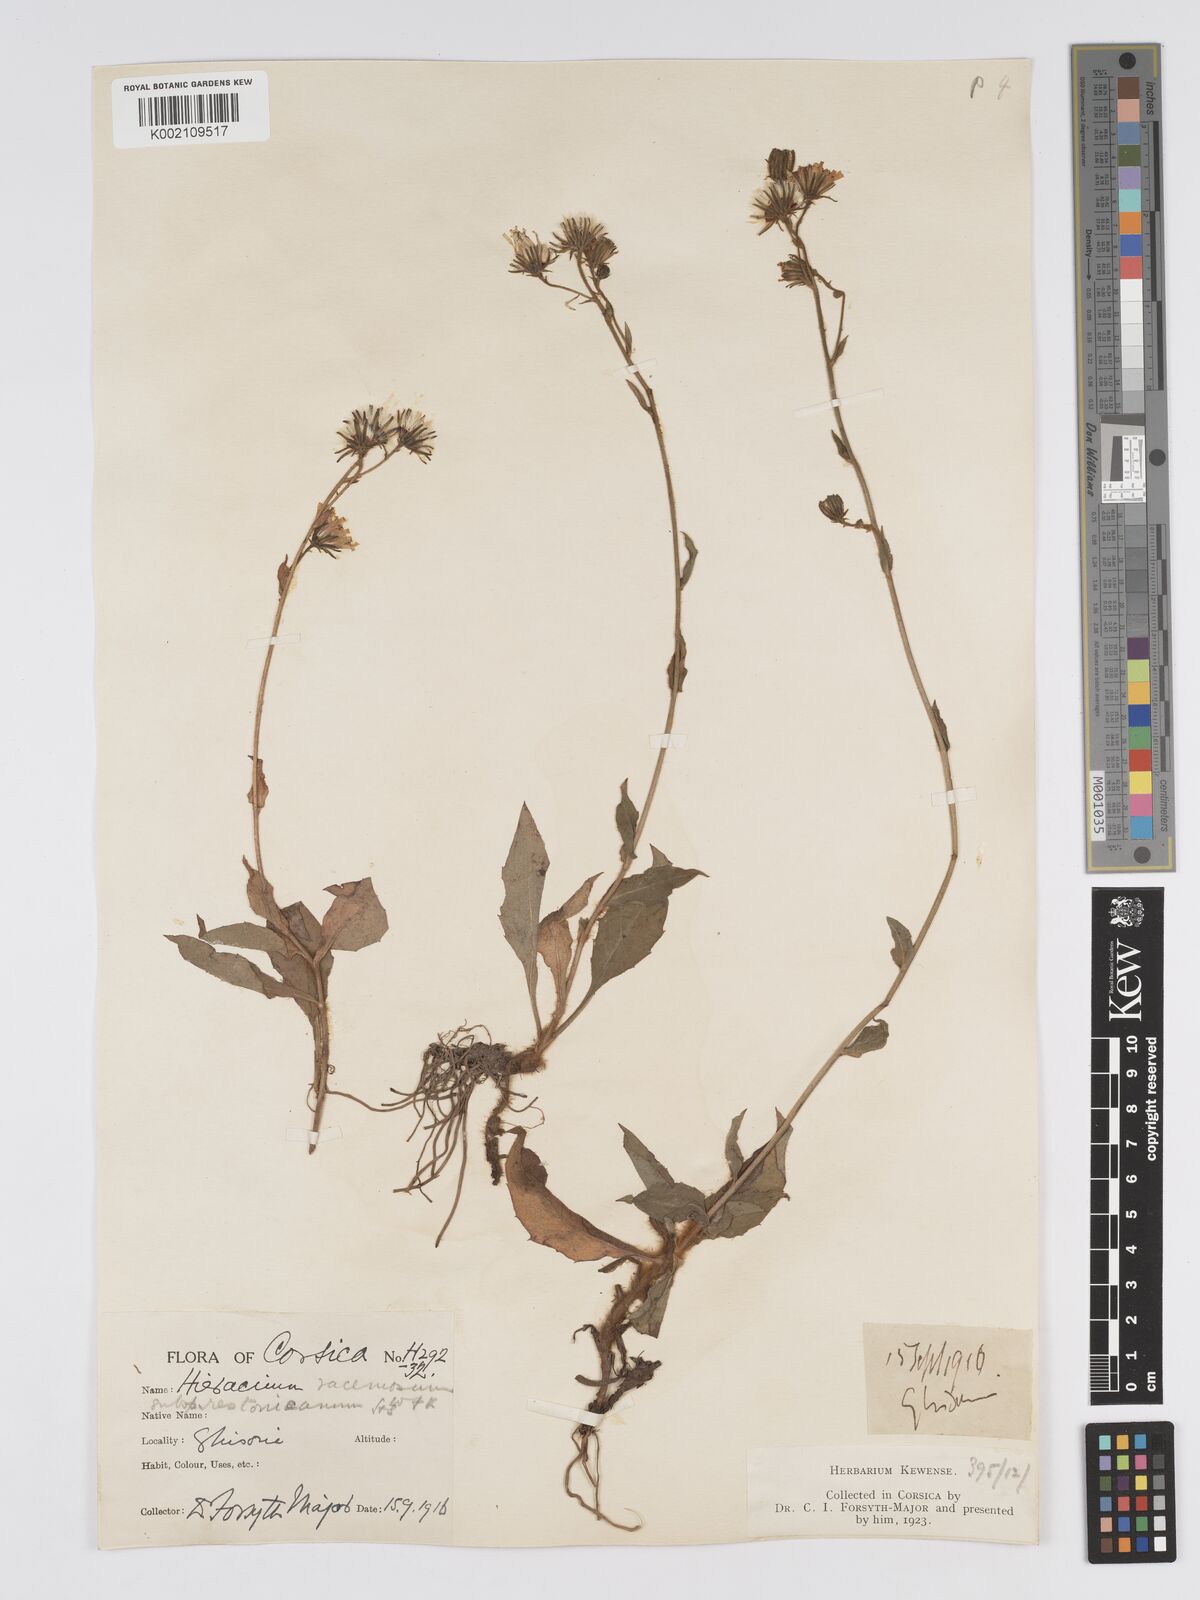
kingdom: Plantae
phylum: Tracheophyta
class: Magnoliopsida
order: Asterales
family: Asteraceae
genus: Hieracium
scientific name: Hieracium
